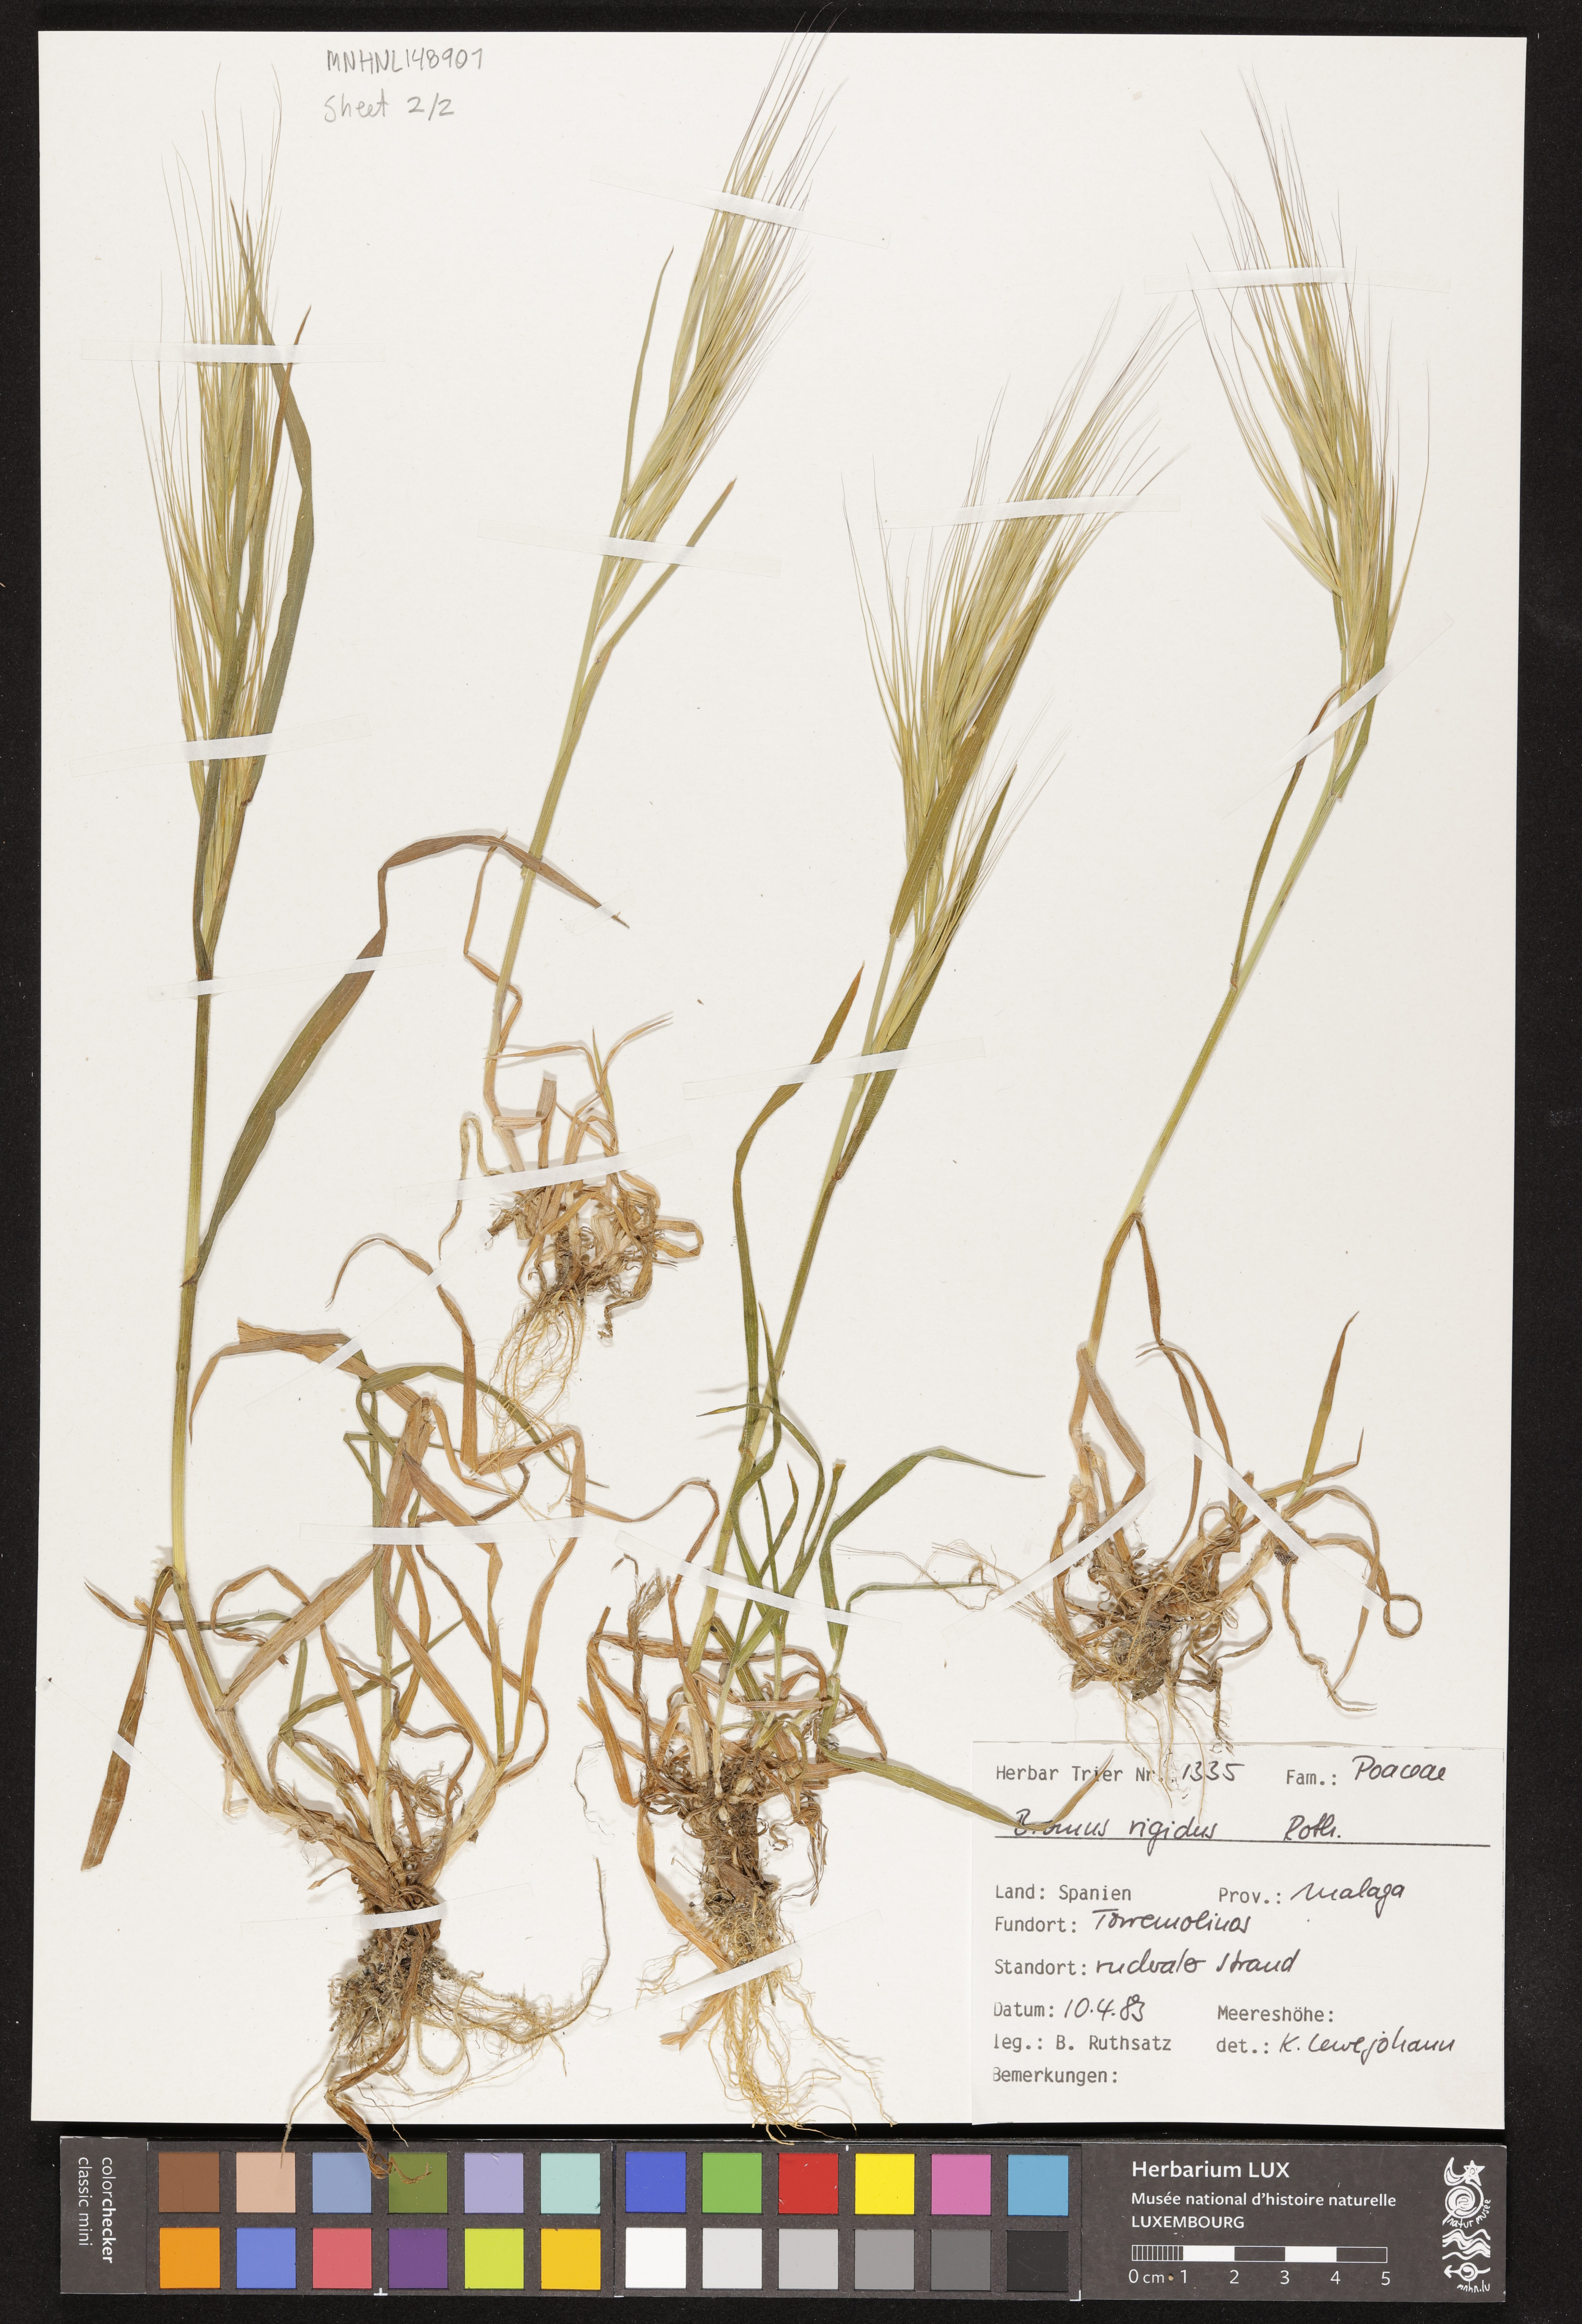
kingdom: Plantae
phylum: Tracheophyta
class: Liliopsida
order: Poales
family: Poaceae
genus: Bromus
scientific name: Bromus rigidus
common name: Ripgut brome
